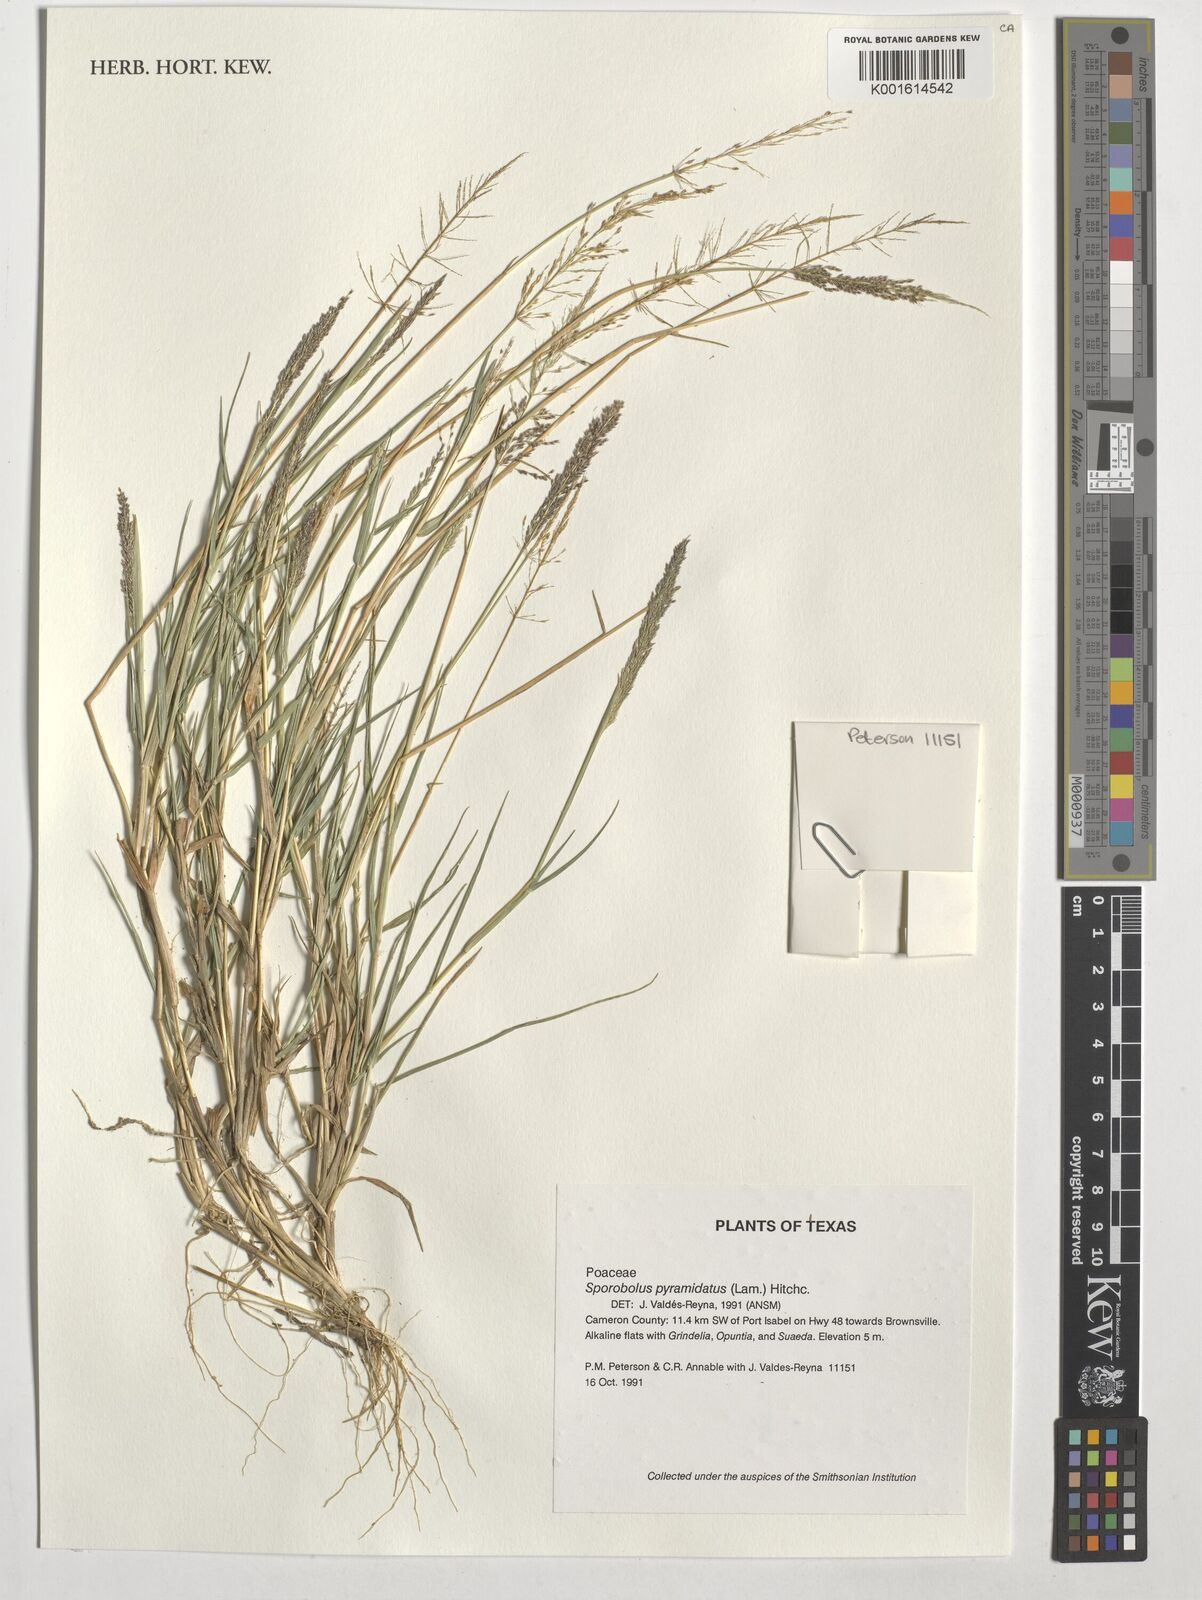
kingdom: Plantae
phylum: Tracheophyta
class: Liliopsida
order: Poales
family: Poaceae
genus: Sporobolus
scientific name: Sporobolus pyramidatus
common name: Whorled dropseed
